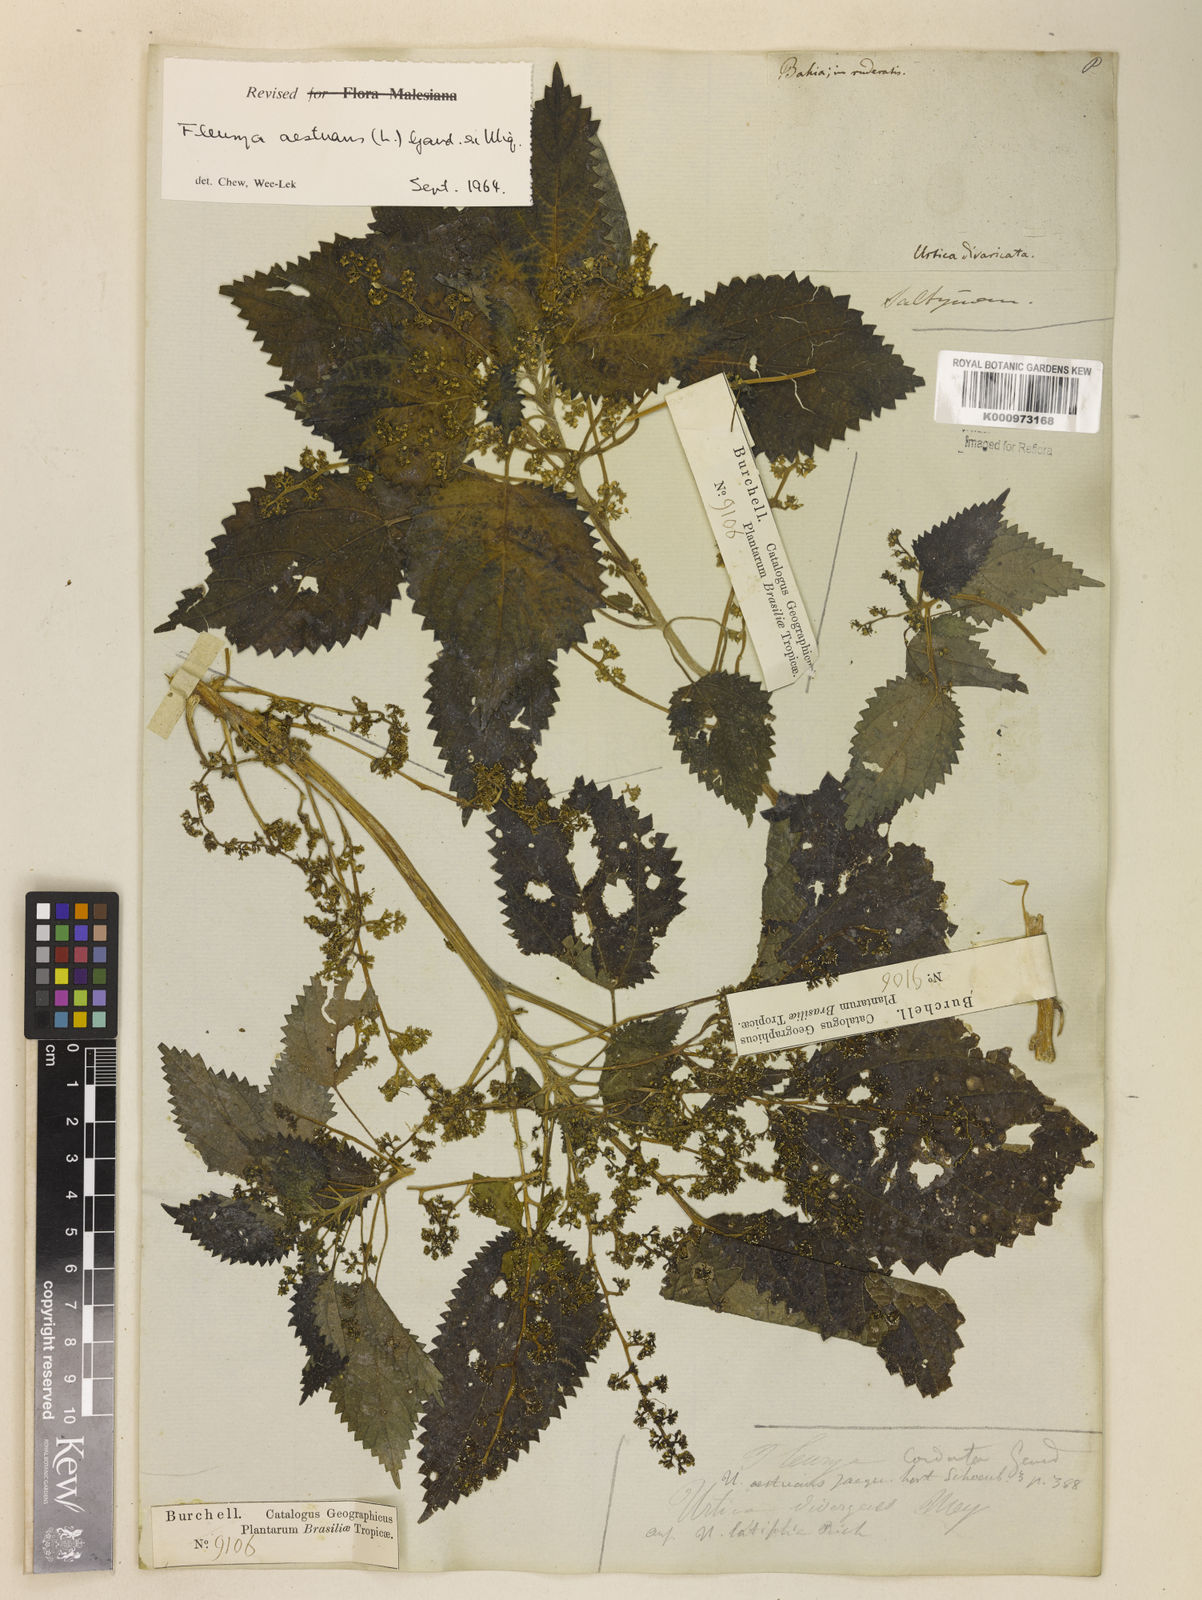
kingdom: Plantae
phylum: Tracheophyta
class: Magnoliopsida
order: Rosales
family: Urticaceae
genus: Laportea
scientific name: Laportea aestuans
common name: West indian woodnettle
